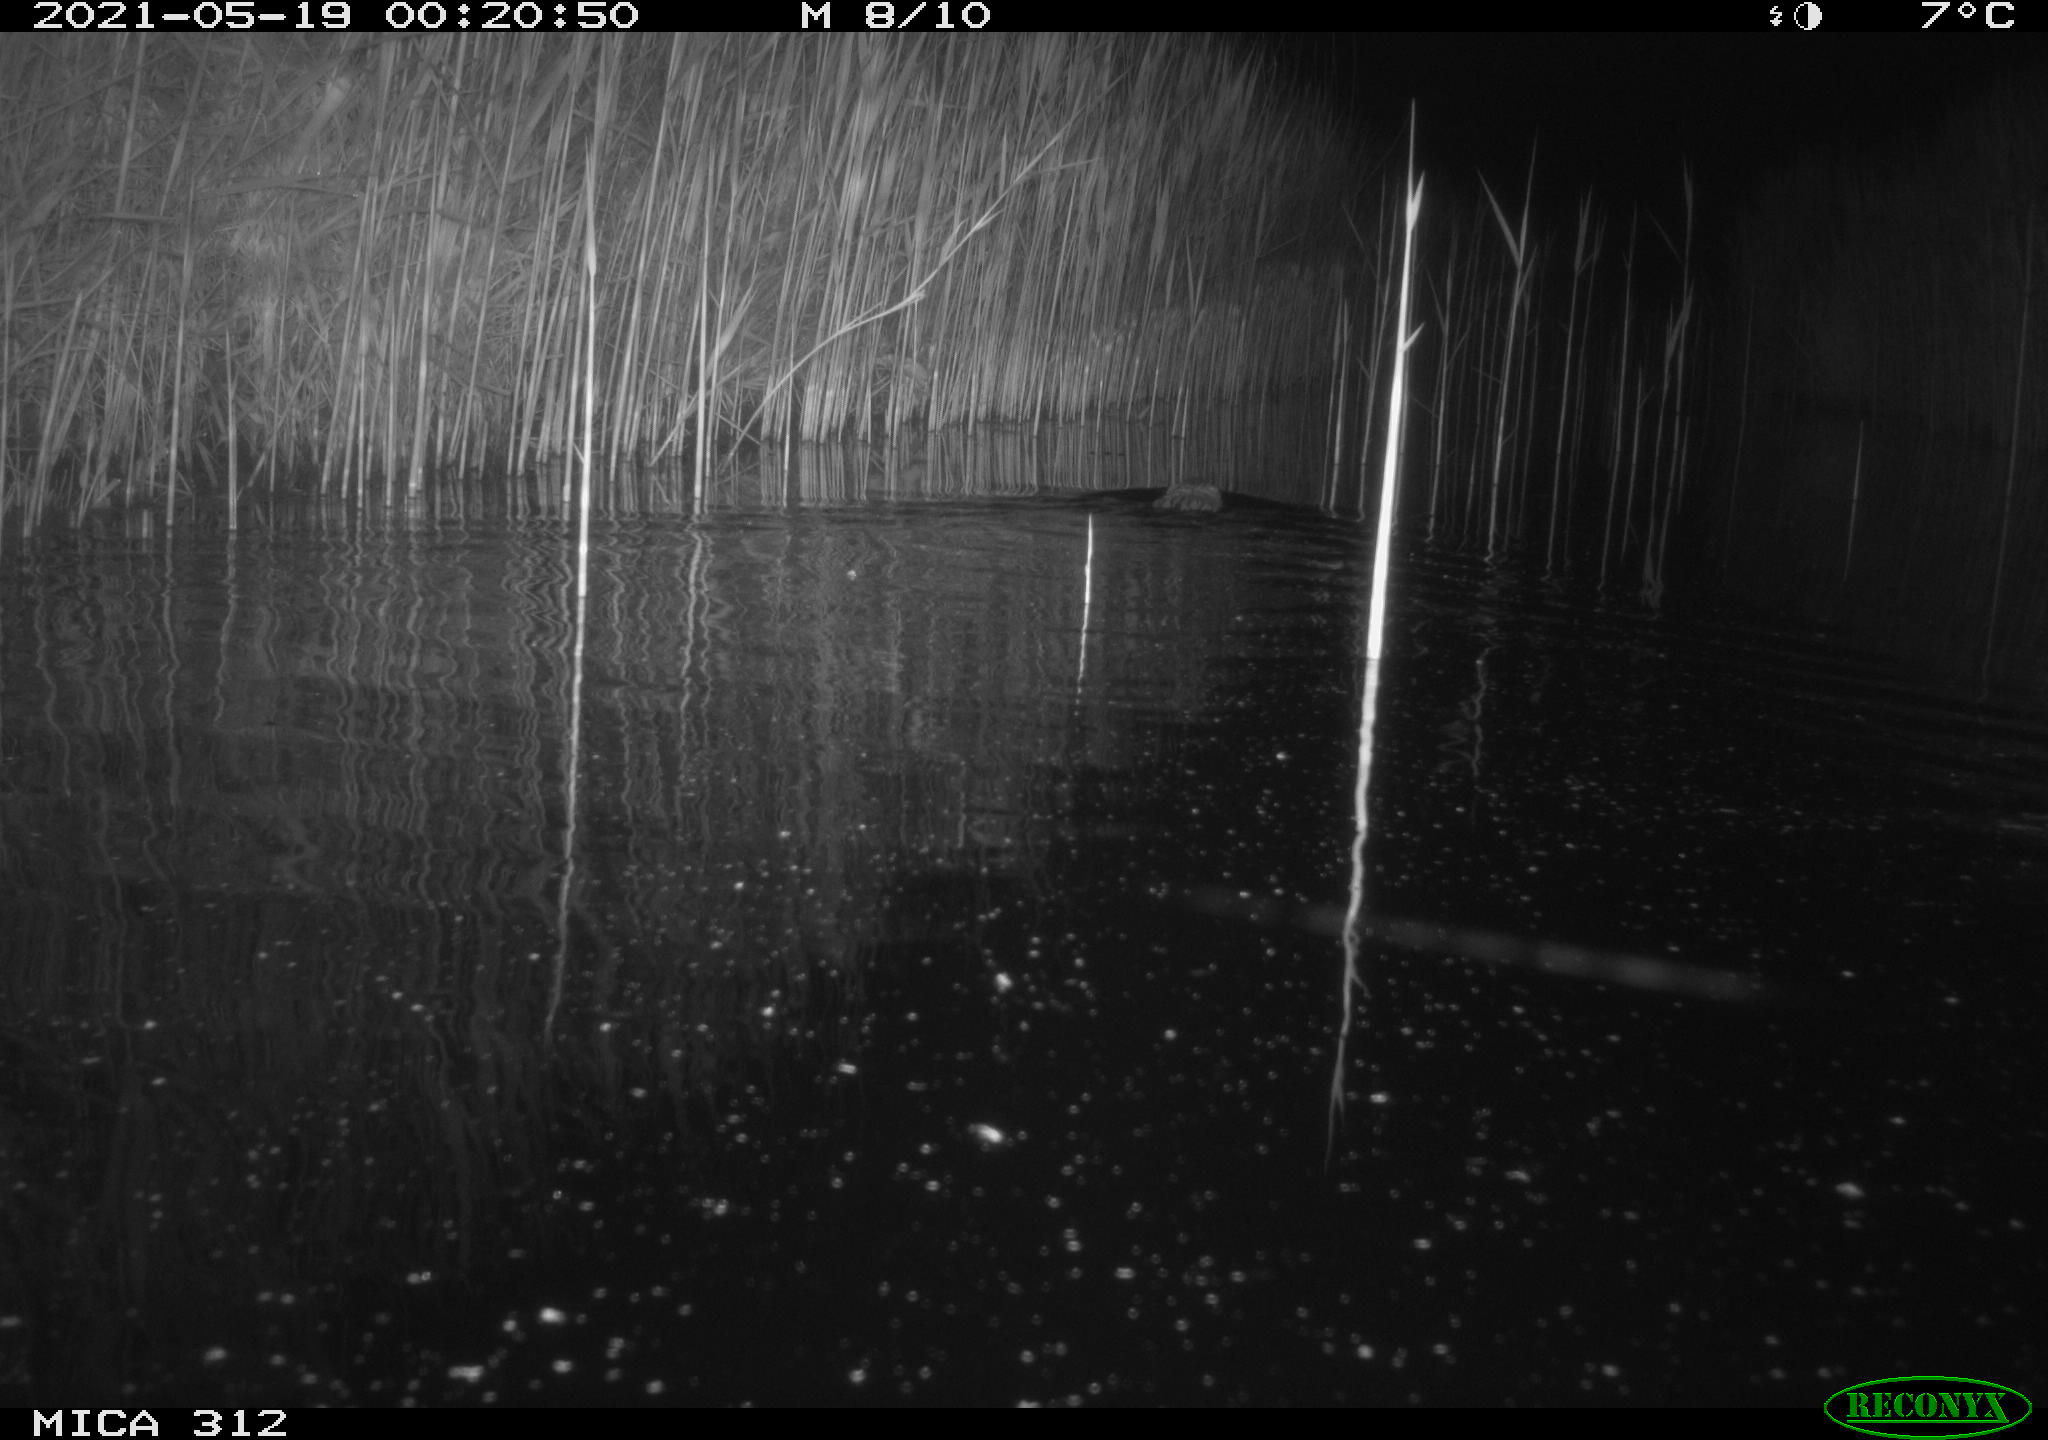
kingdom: Animalia
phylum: Chordata
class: Mammalia
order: Rodentia
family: Cricetidae
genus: Ondatra
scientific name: Ondatra zibethicus
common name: Muskrat
